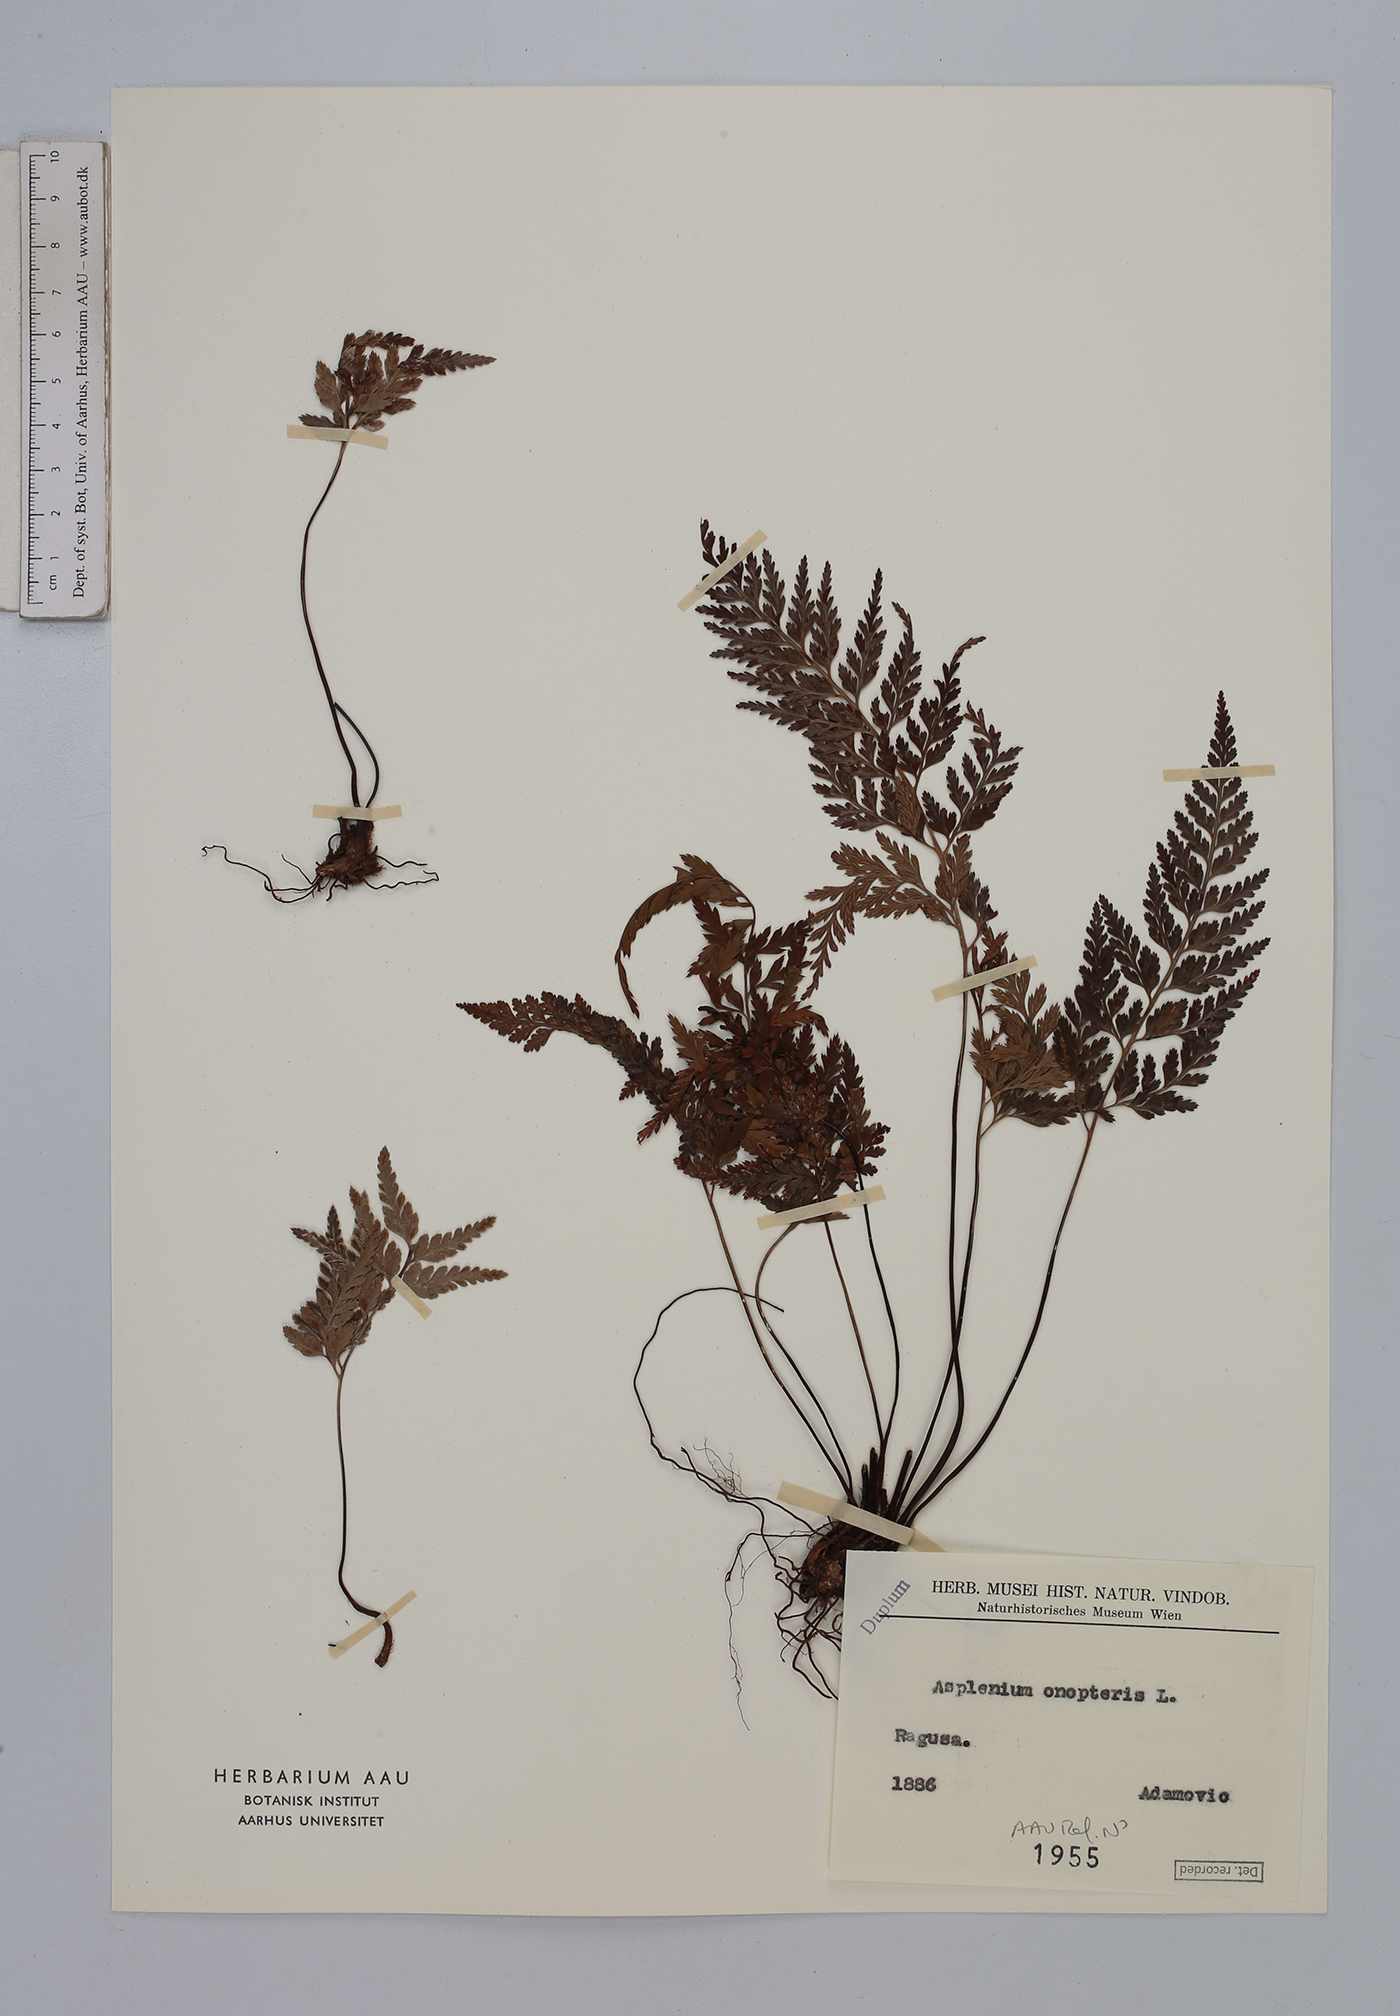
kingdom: Plantae
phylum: Tracheophyta
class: Polypodiopsida
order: Polypodiales
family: Aspleniaceae
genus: Asplenium
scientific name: Asplenium onopteris
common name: Irish spleenwort
